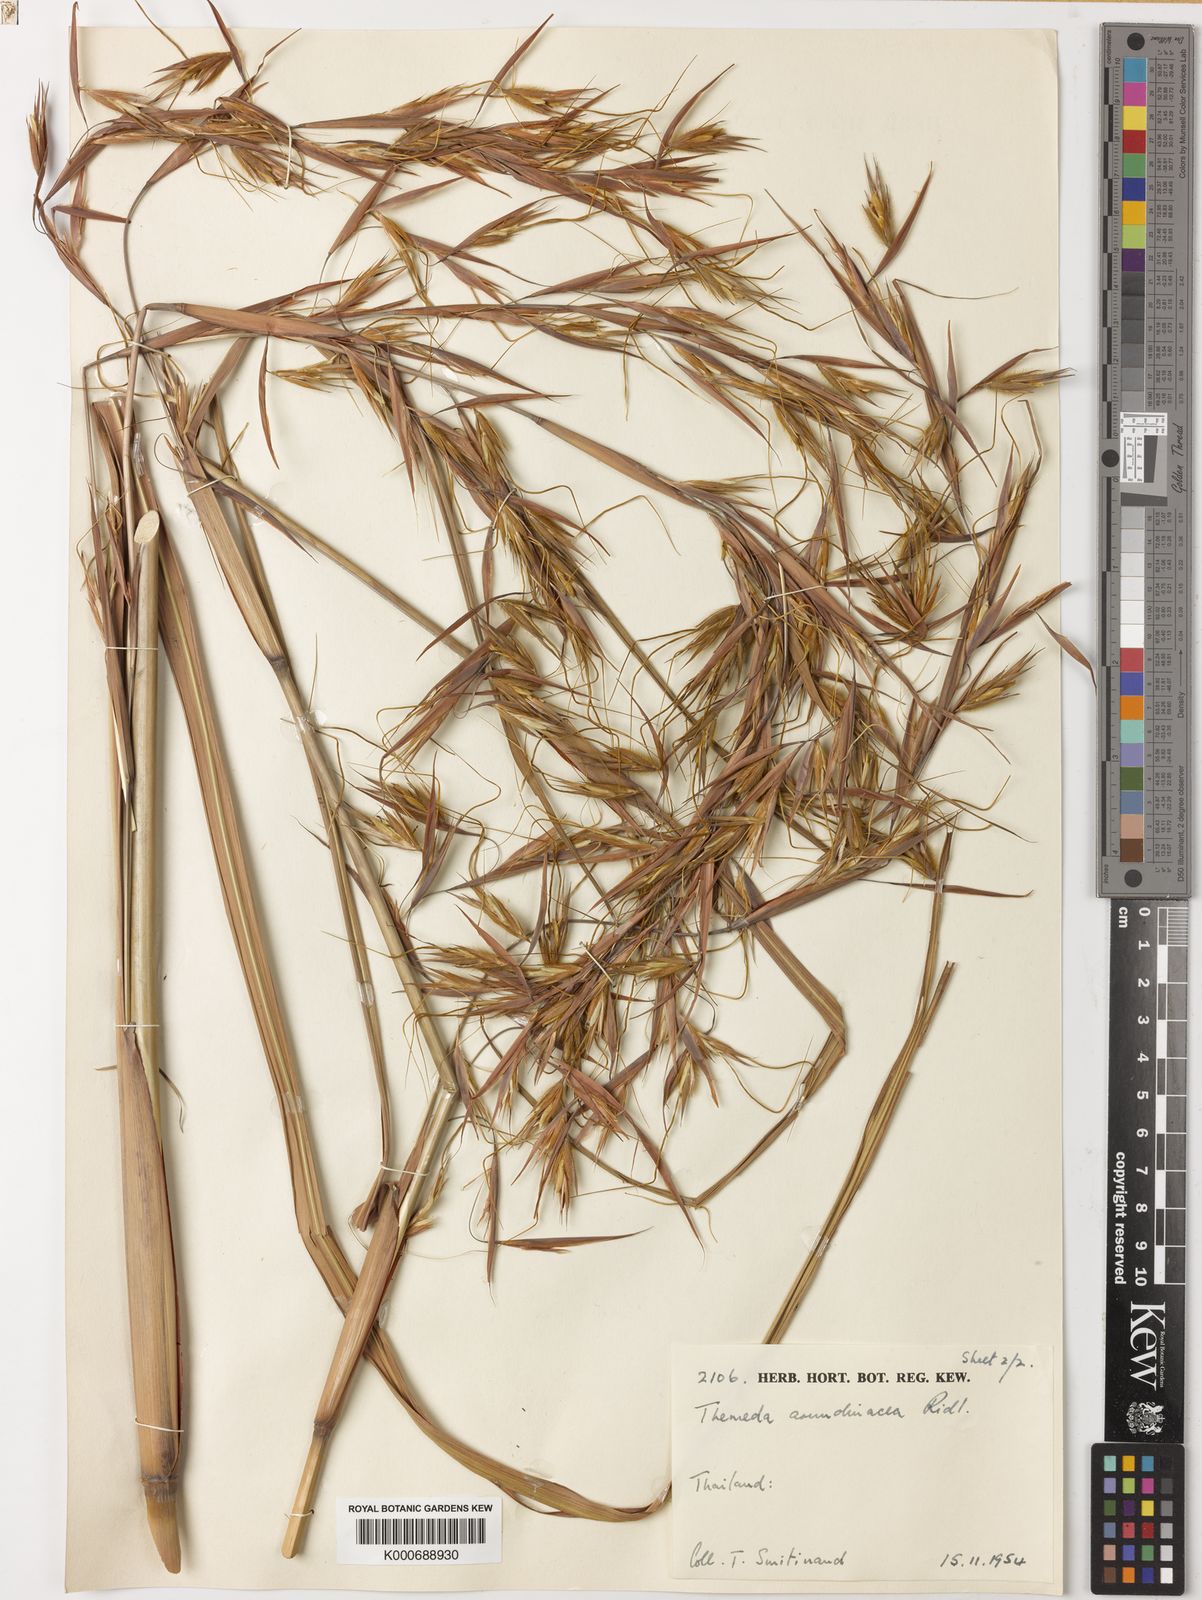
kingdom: Plantae
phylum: Tracheophyta
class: Liliopsida
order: Poales
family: Poaceae
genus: Themeda
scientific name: Themeda arundinacea
